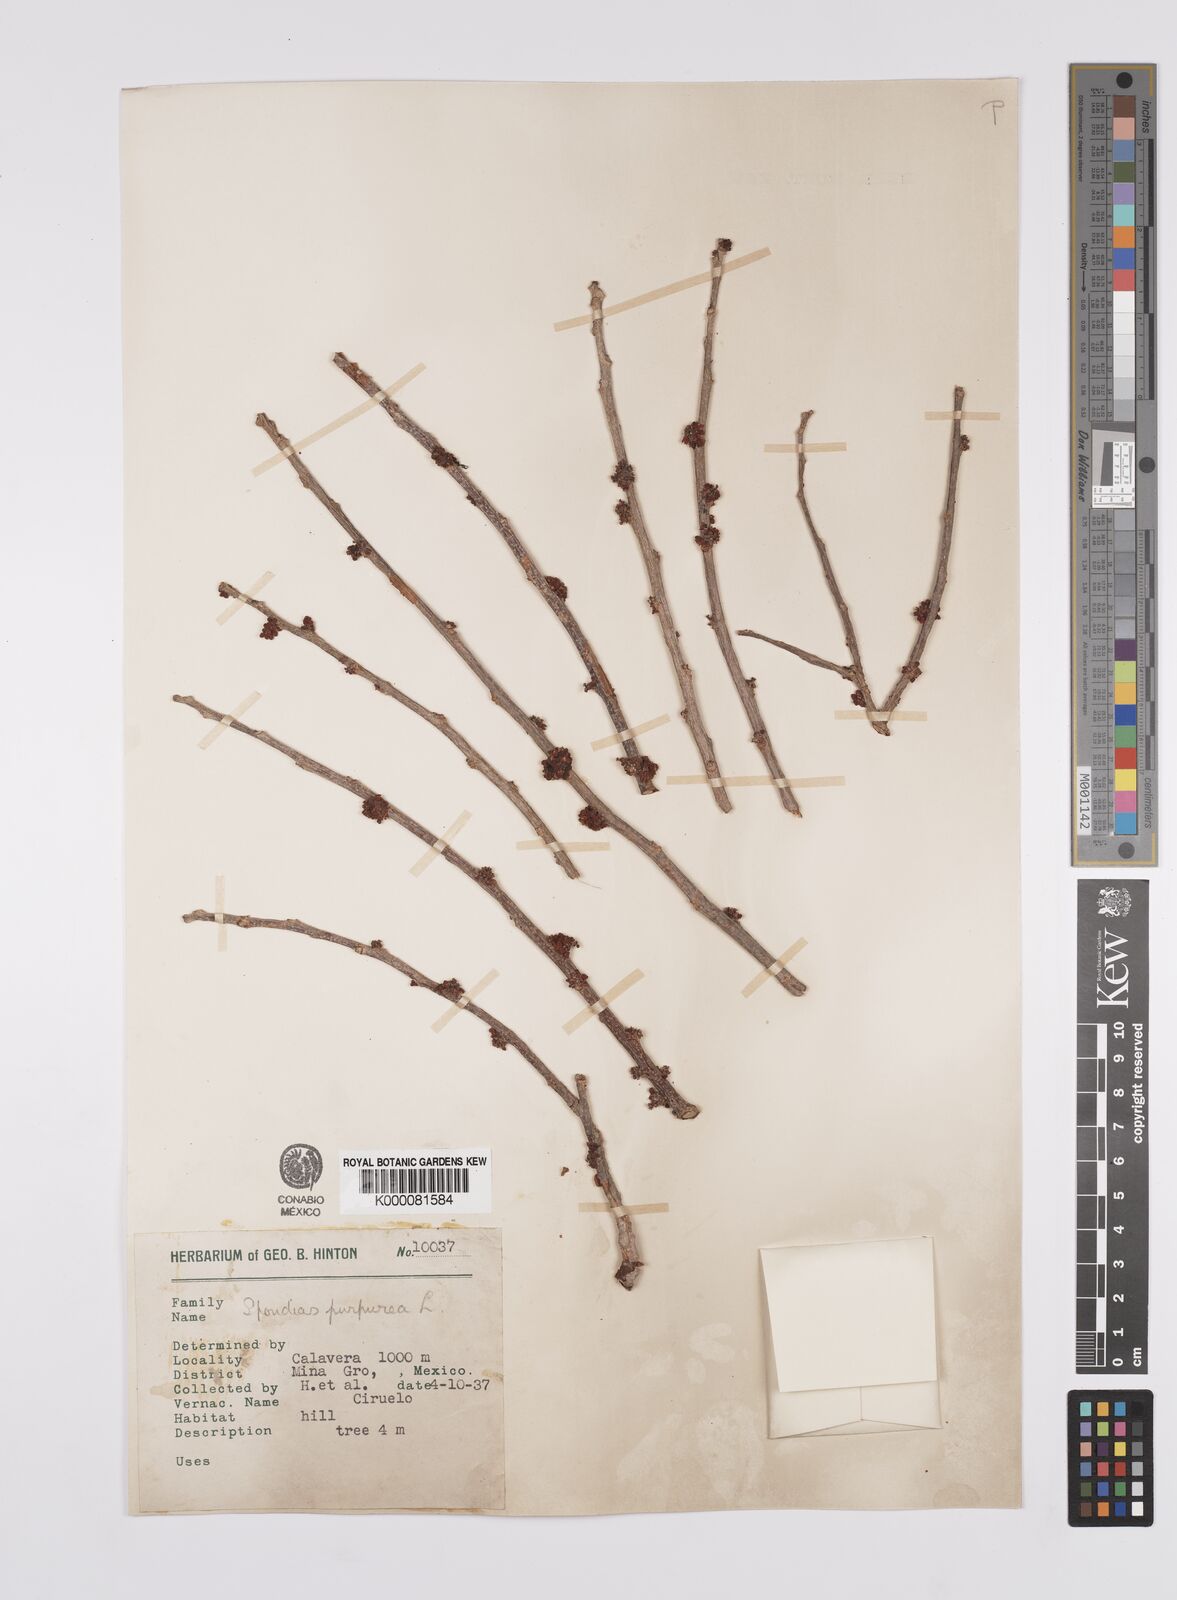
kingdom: Plantae
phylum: Tracheophyta
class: Magnoliopsida
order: Sapindales
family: Anacardiaceae
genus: Spondias
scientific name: Spondias purpurea
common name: Purple mombin
